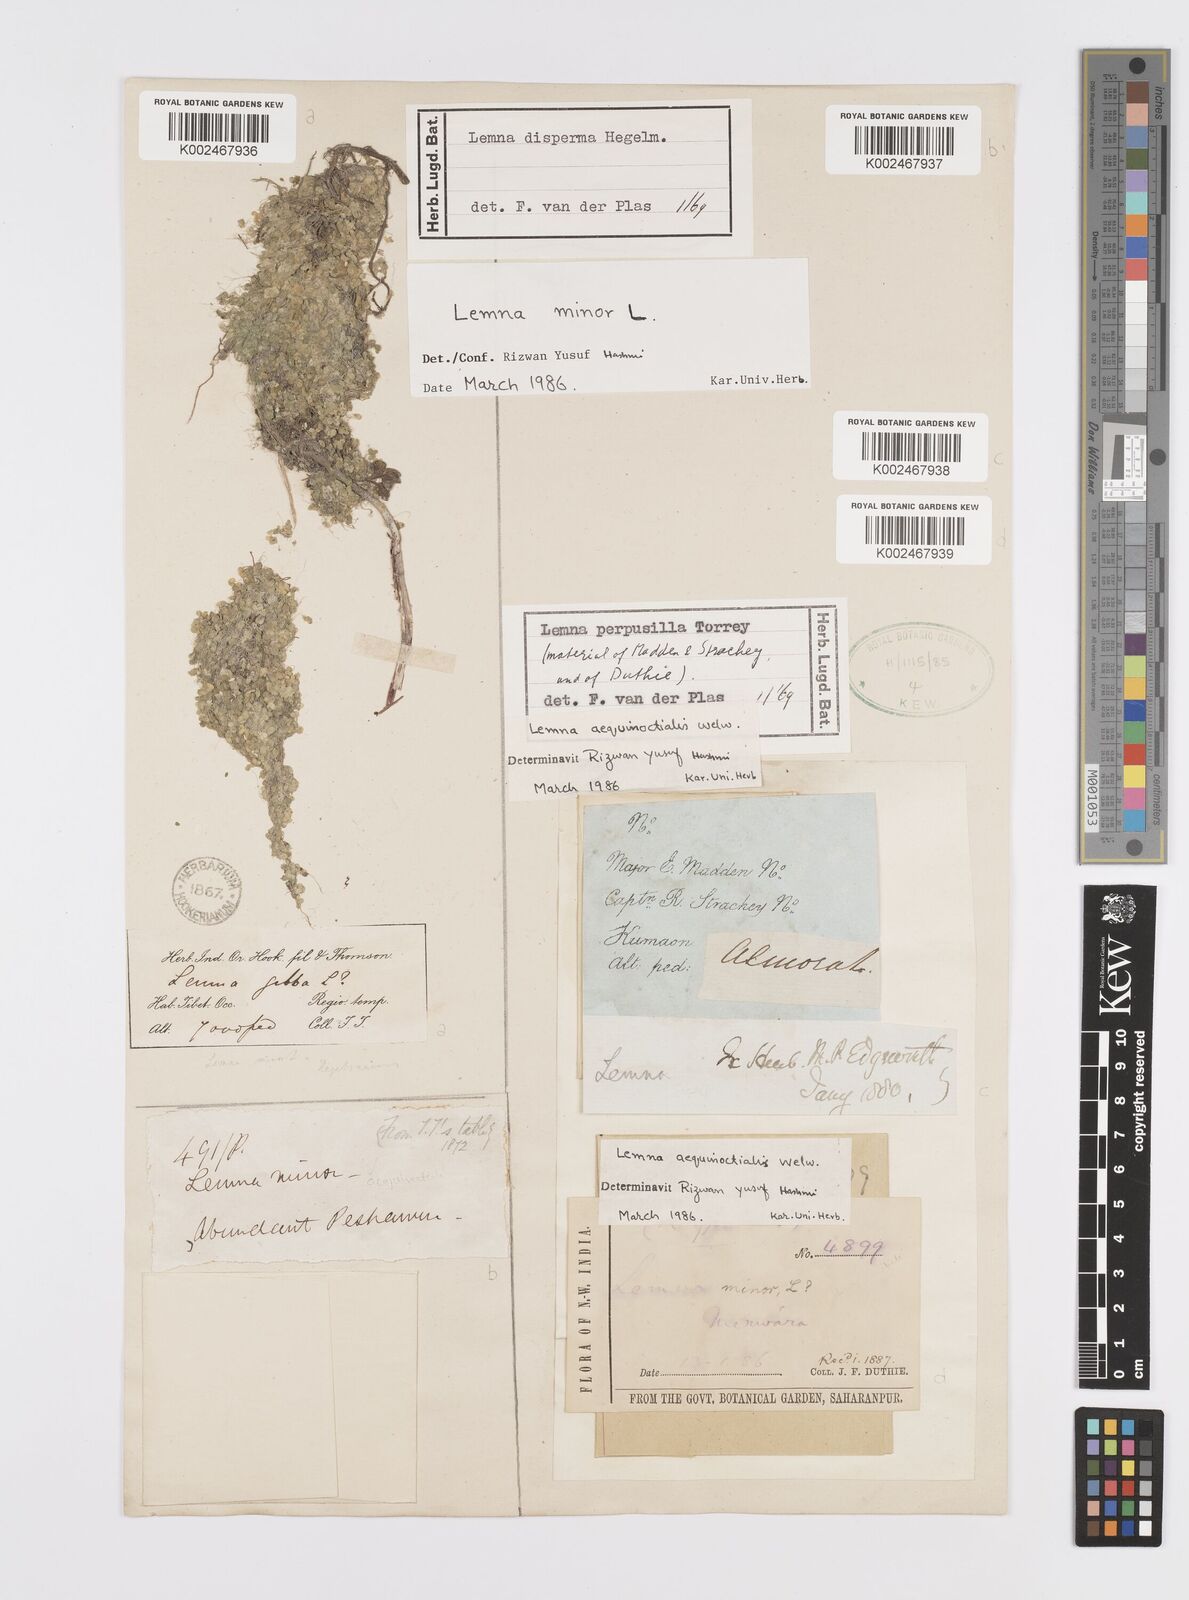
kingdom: Plantae
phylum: Tracheophyta
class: Liliopsida
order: Alismatales
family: Araceae
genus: Lemna
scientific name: Lemna minor
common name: Common duckweed
